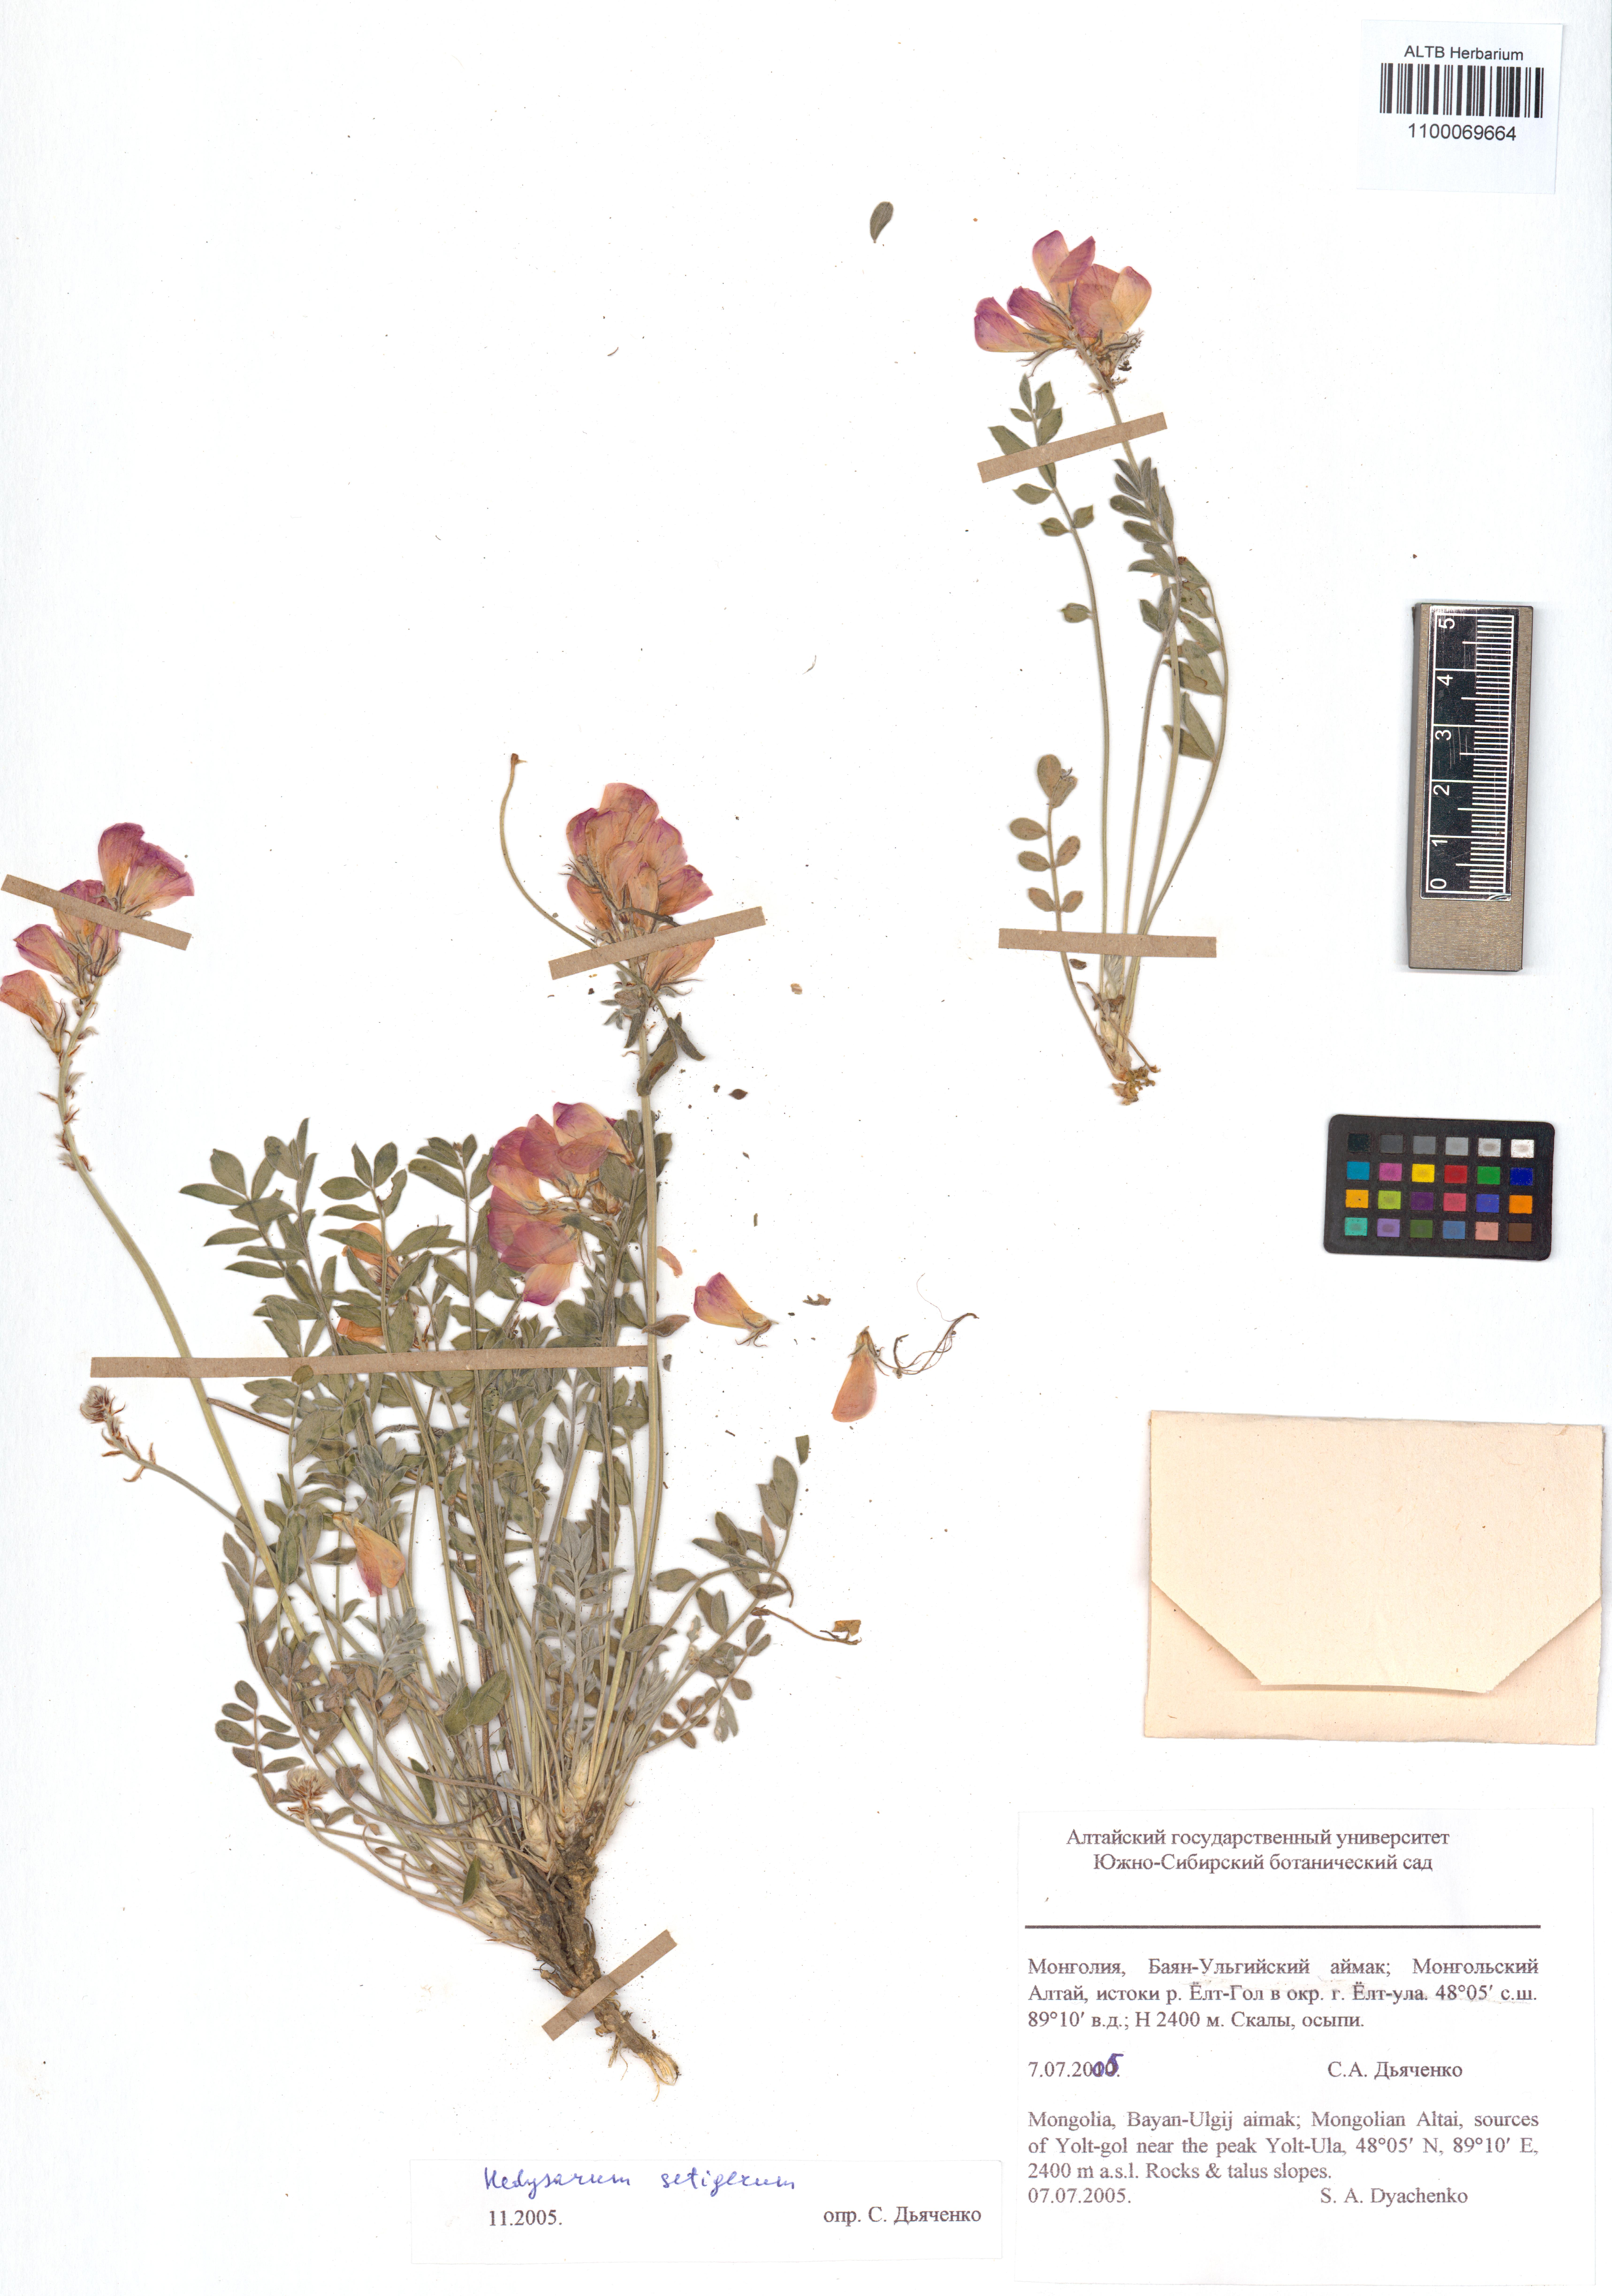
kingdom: Plantae
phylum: Tracheophyta
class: Magnoliopsida
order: Fabales
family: Fabaceae
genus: Hedysarum
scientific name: Hedysarum setigerum
